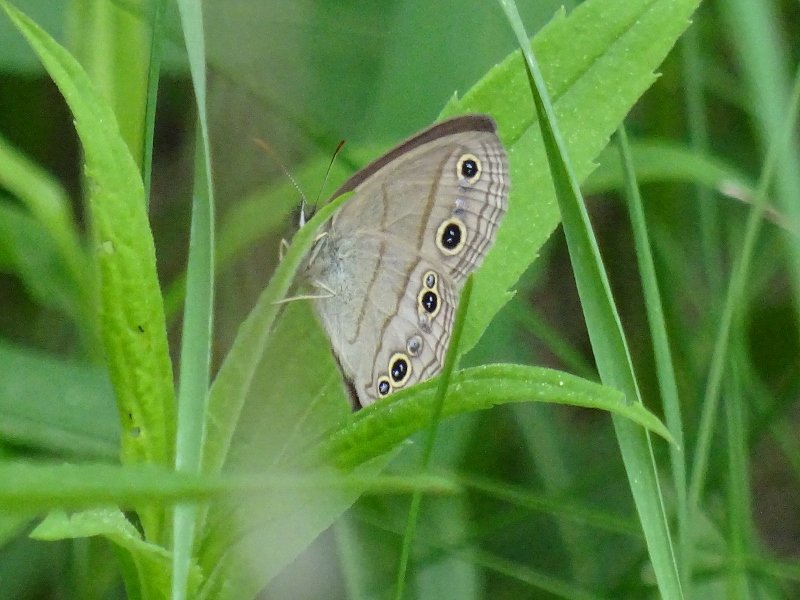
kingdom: Animalia
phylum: Arthropoda
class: Insecta
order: Lepidoptera
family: Nymphalidae
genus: Euptychia
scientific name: Euptychia cymela
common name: Little Wood Satyr
